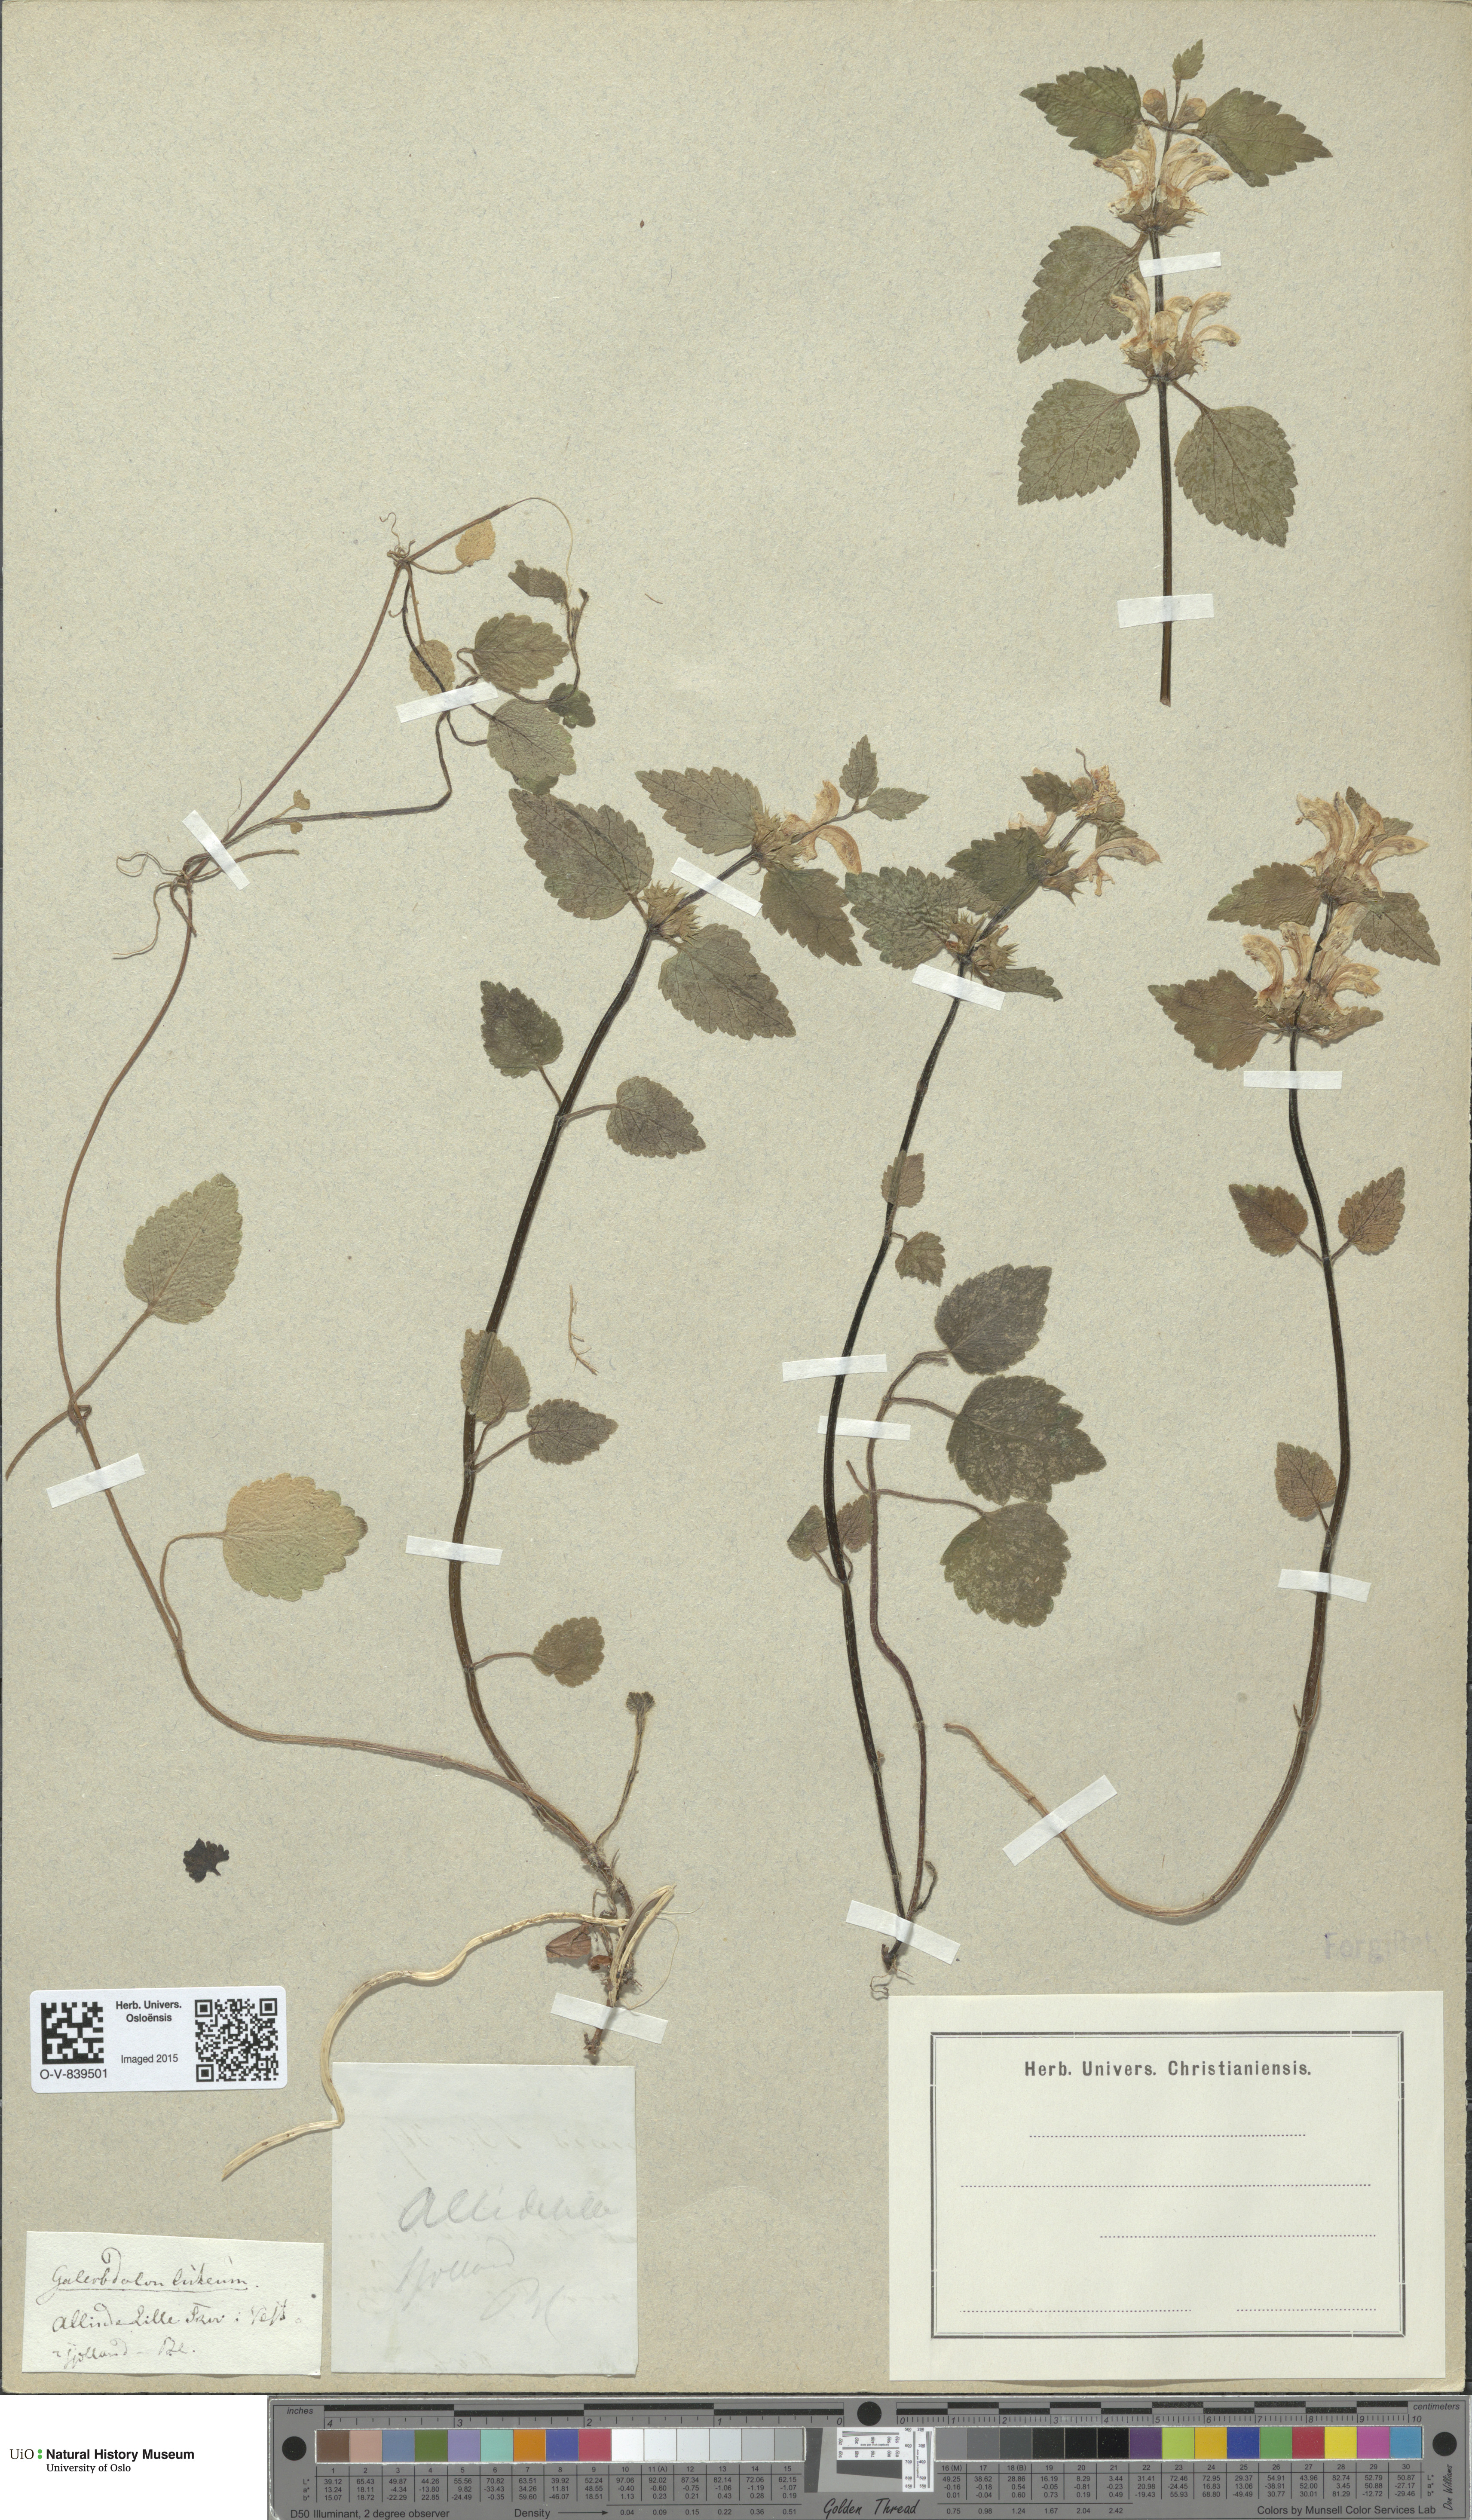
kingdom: Plantae
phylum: Tracheophyta
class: Magnoliopsida
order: Lamiales
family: Lamiaceae
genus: Lamium
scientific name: Lamium galeobdolon
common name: Yellow archangel
